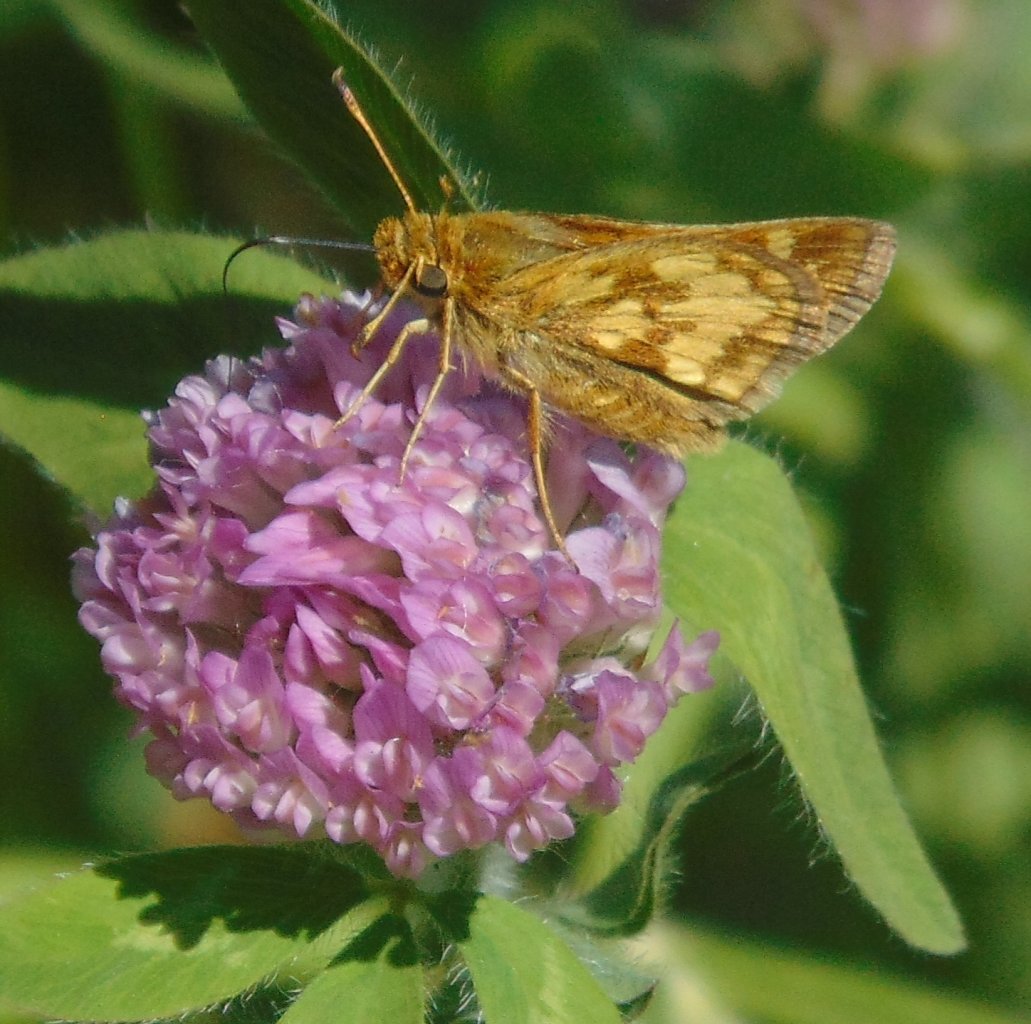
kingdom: Animalia
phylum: Arthropoda
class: Insecta
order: Lepidoptera
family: Hesperiidae
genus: Polites
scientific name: Polites coras
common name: Peck's Skipper
